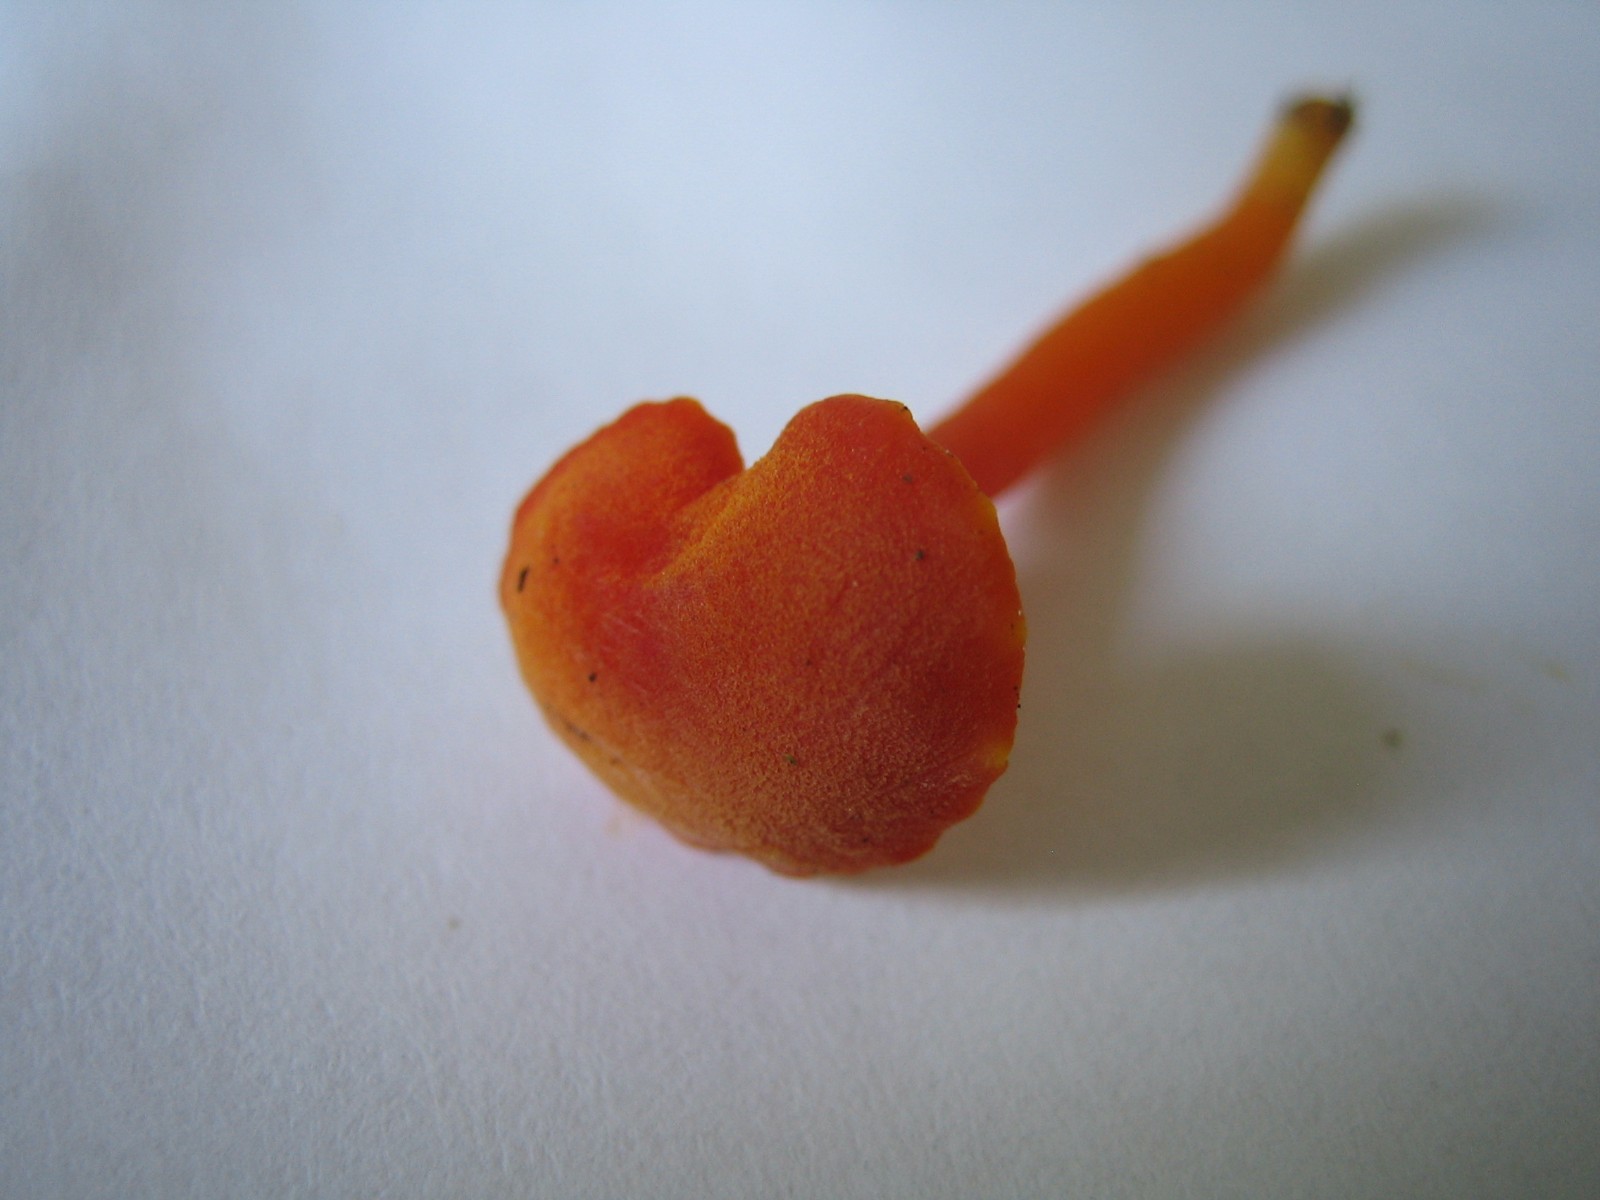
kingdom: Fungi
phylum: Basidiomycota
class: Agaricomycetes
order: Agaricales
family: Hygrophoraceae
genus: Hygrocybe
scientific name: Hygrocybe miniata
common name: mønje-vokshat
